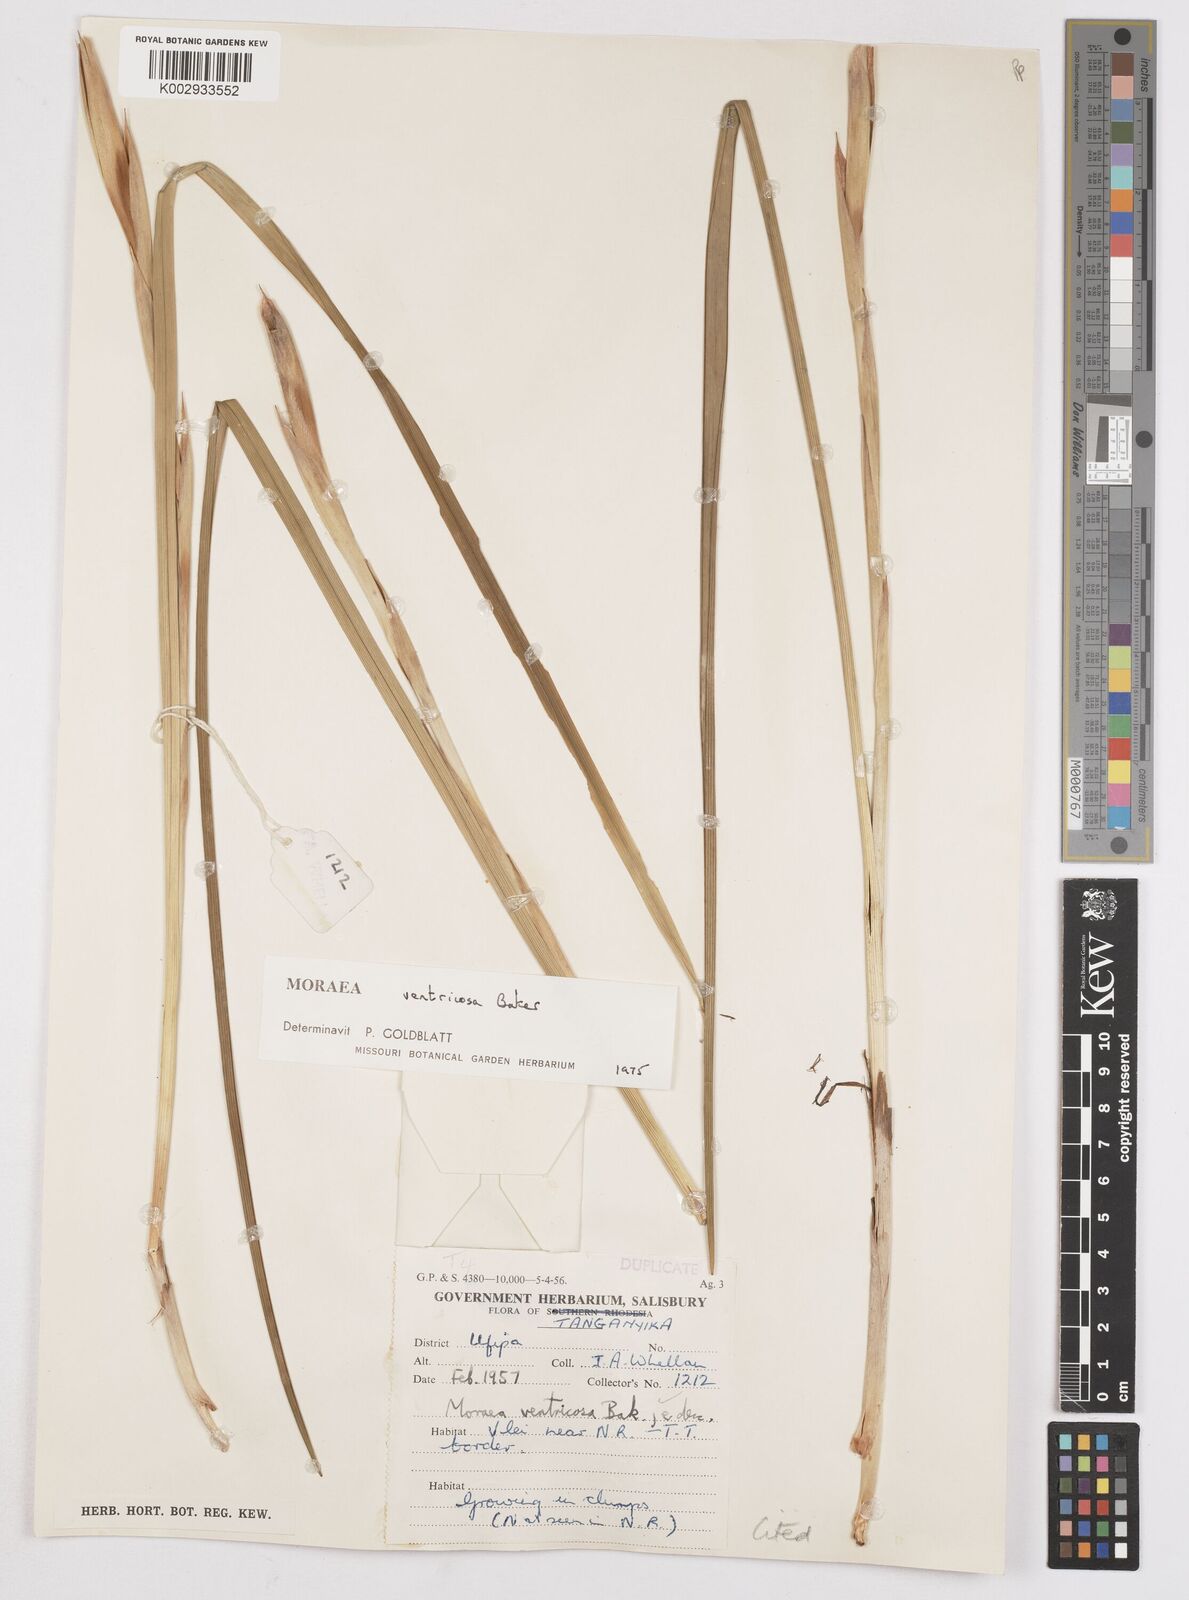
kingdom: Plantae
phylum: Tracheophyta
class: Liliopsida
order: Asparagales
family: Iridaceae
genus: Moraea
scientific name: Moraea ventricosa
